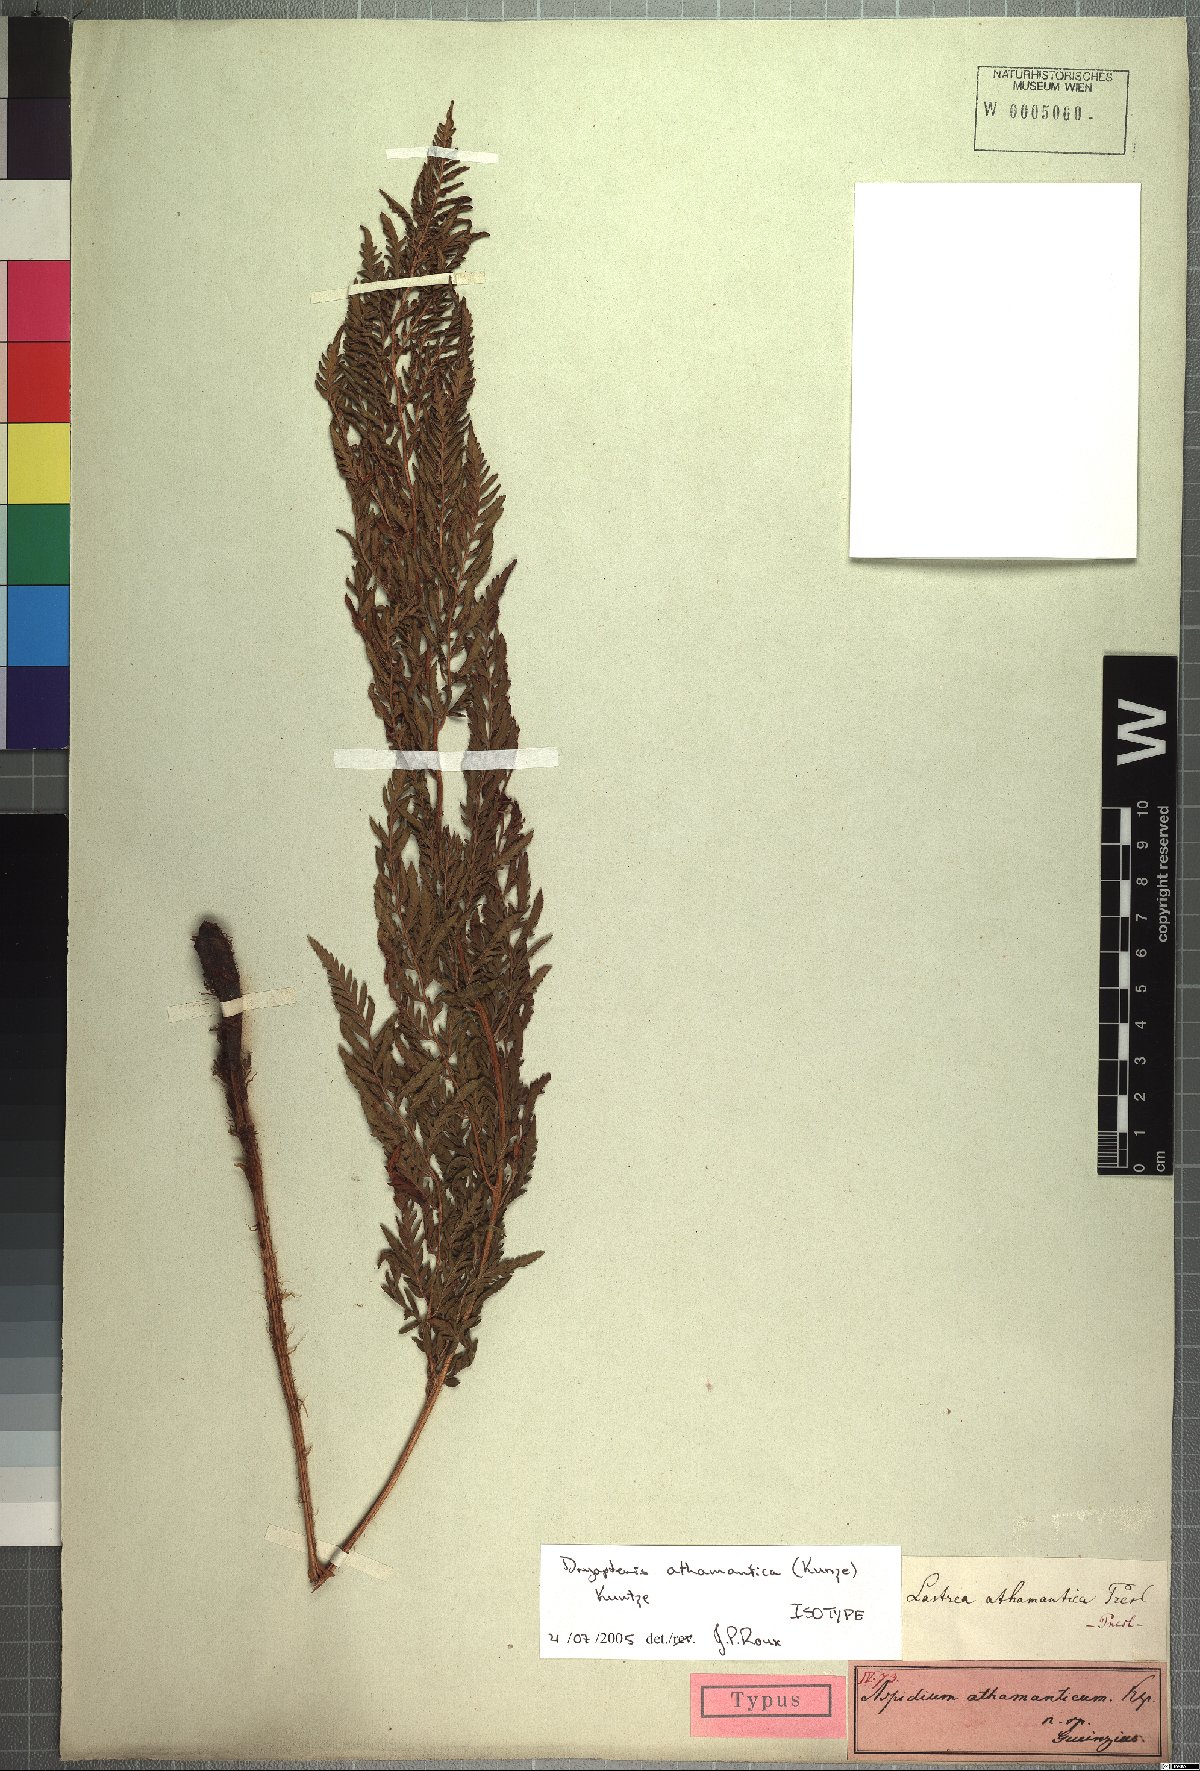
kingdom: Plantae
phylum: Tracheophyta
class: Polypodiopsida
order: Polypodiales
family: Dryopteridaceae
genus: Dryopteris
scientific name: Dryopteris athamantica
